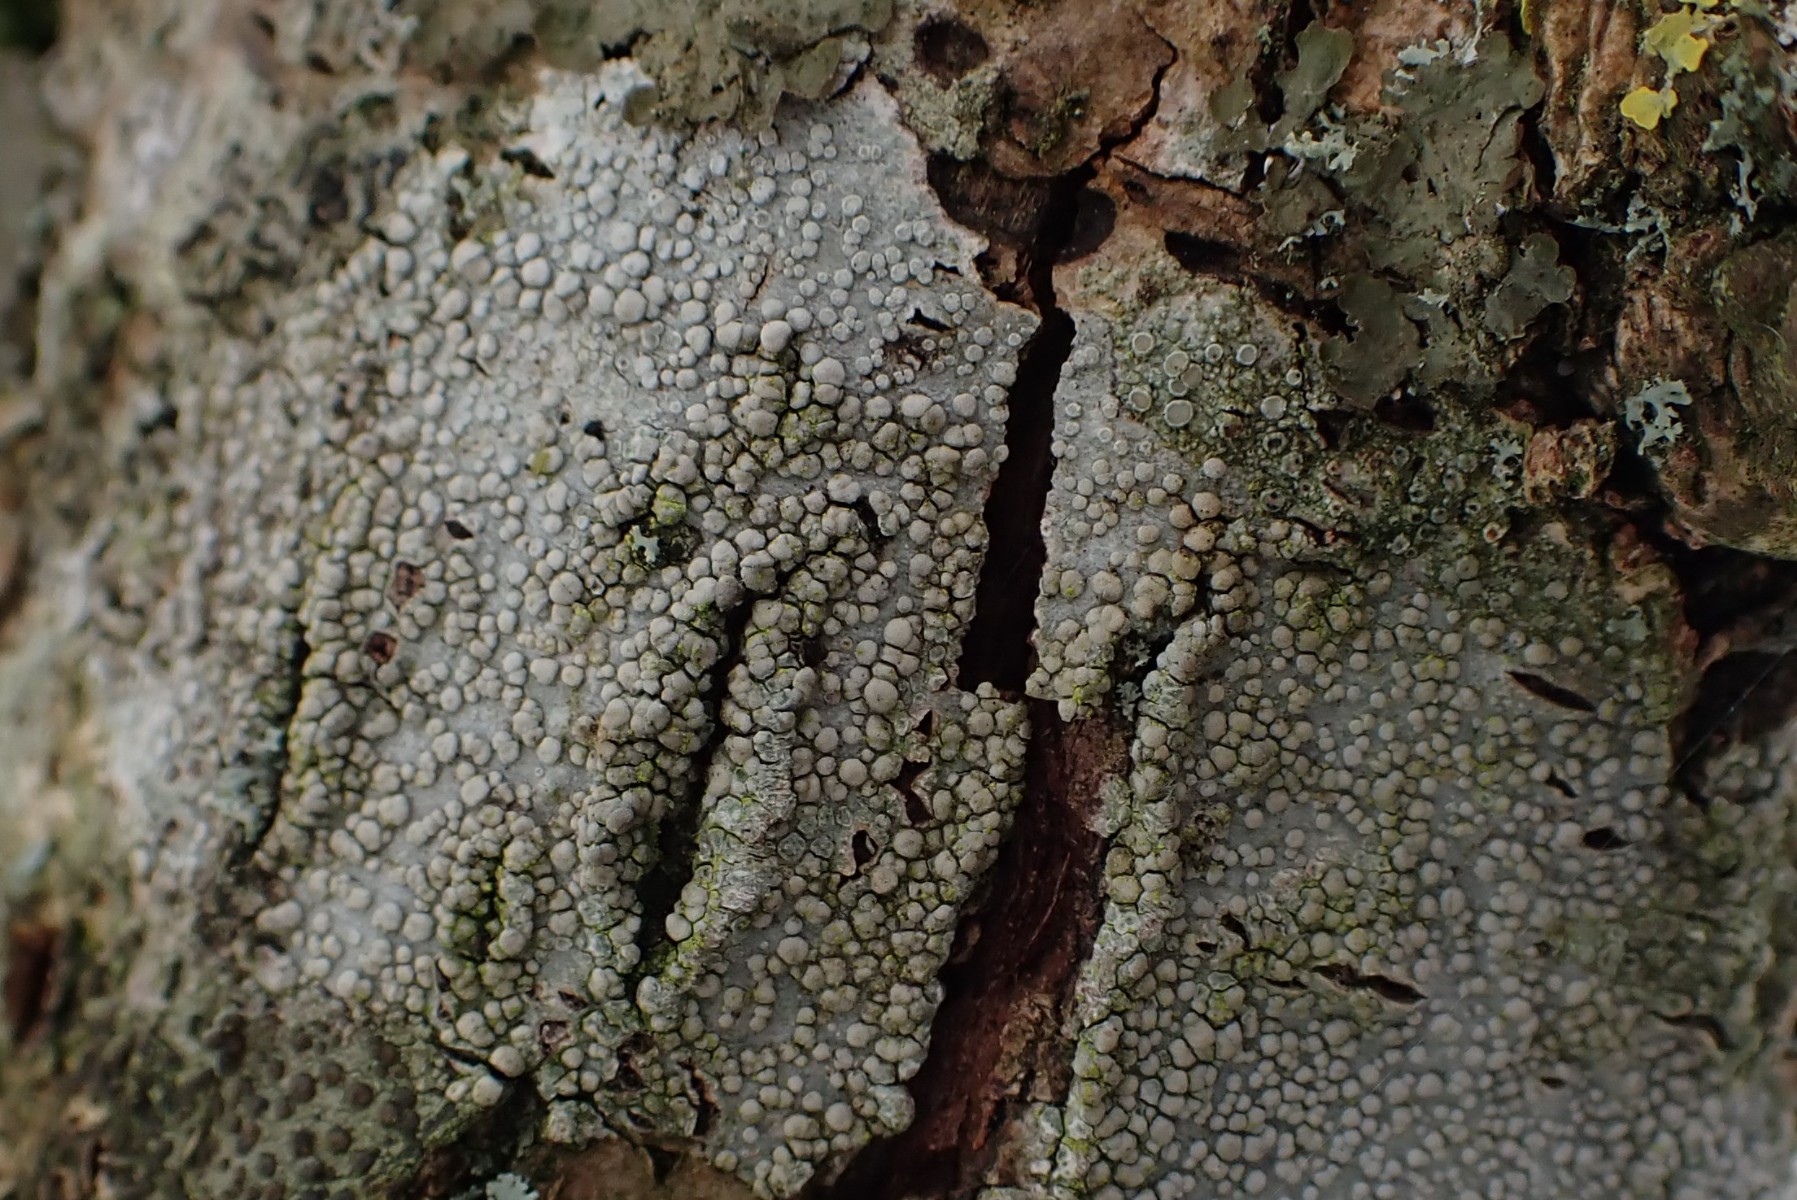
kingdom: Fungi
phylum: Ascomycota
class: Lecanoromycetes
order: Lecanorales
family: Lecanoraceae
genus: Glaucomaria
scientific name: Glaucomaria carpinea
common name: hviddugget kantskivelav
